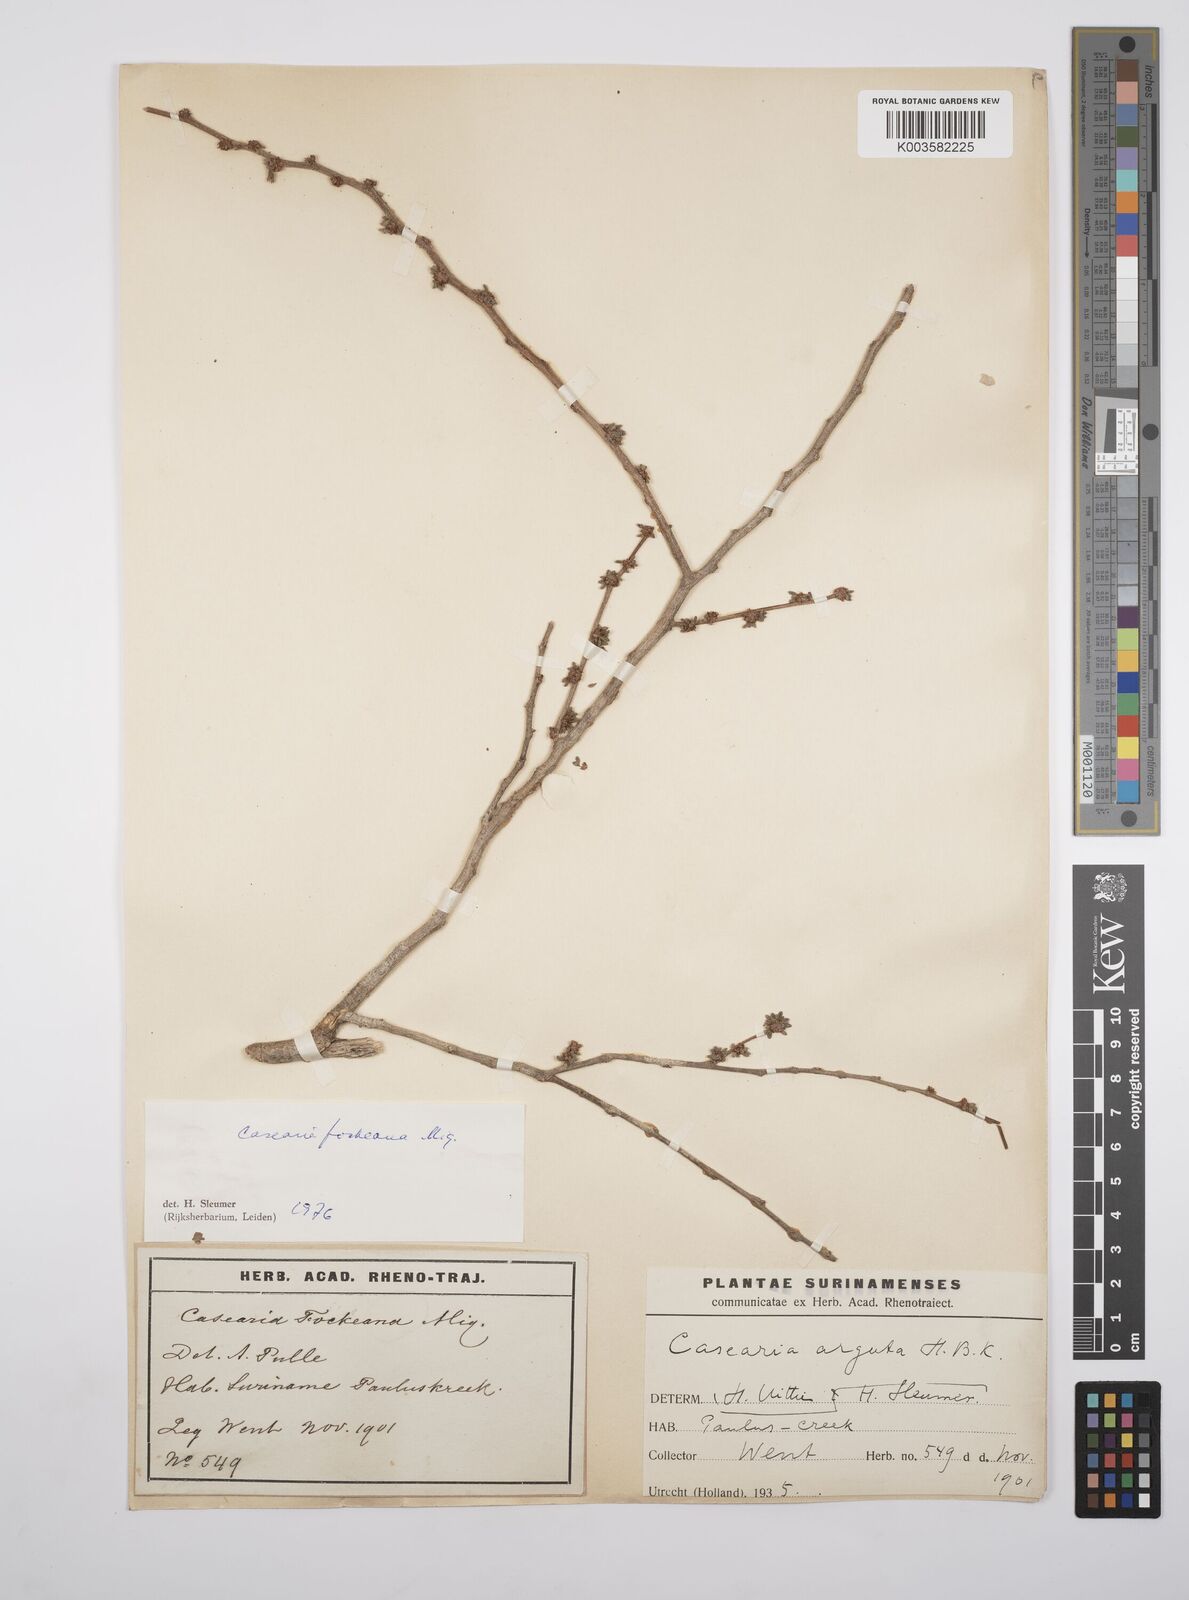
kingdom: Plantae
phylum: Tracheophyta
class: Magnoliopsida
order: Malpighiales
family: Salicaceae
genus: Casearia
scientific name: Casearia mariquitensis
